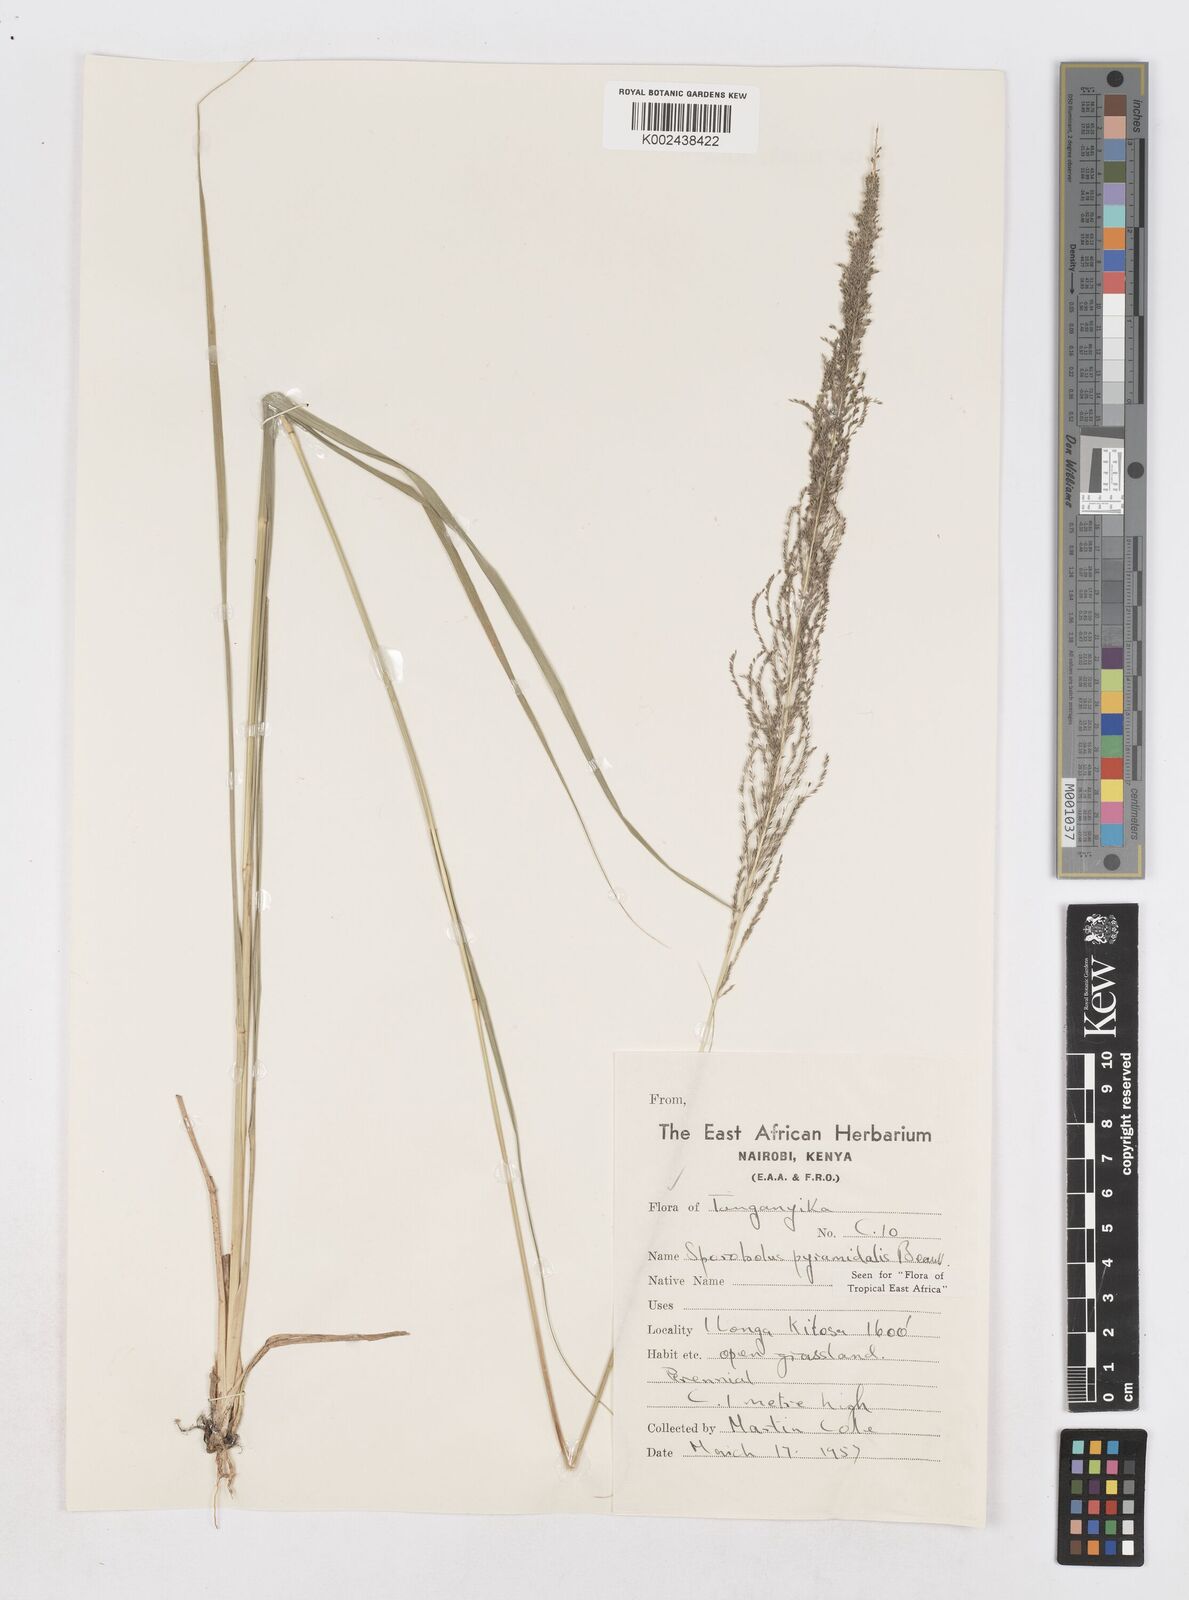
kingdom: Plantae
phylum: Tracheophyta
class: Liliopsida
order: Poales
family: Poaceae
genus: Sporobolus
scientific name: Sporobolus pyramidalis
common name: West indian dropseed
